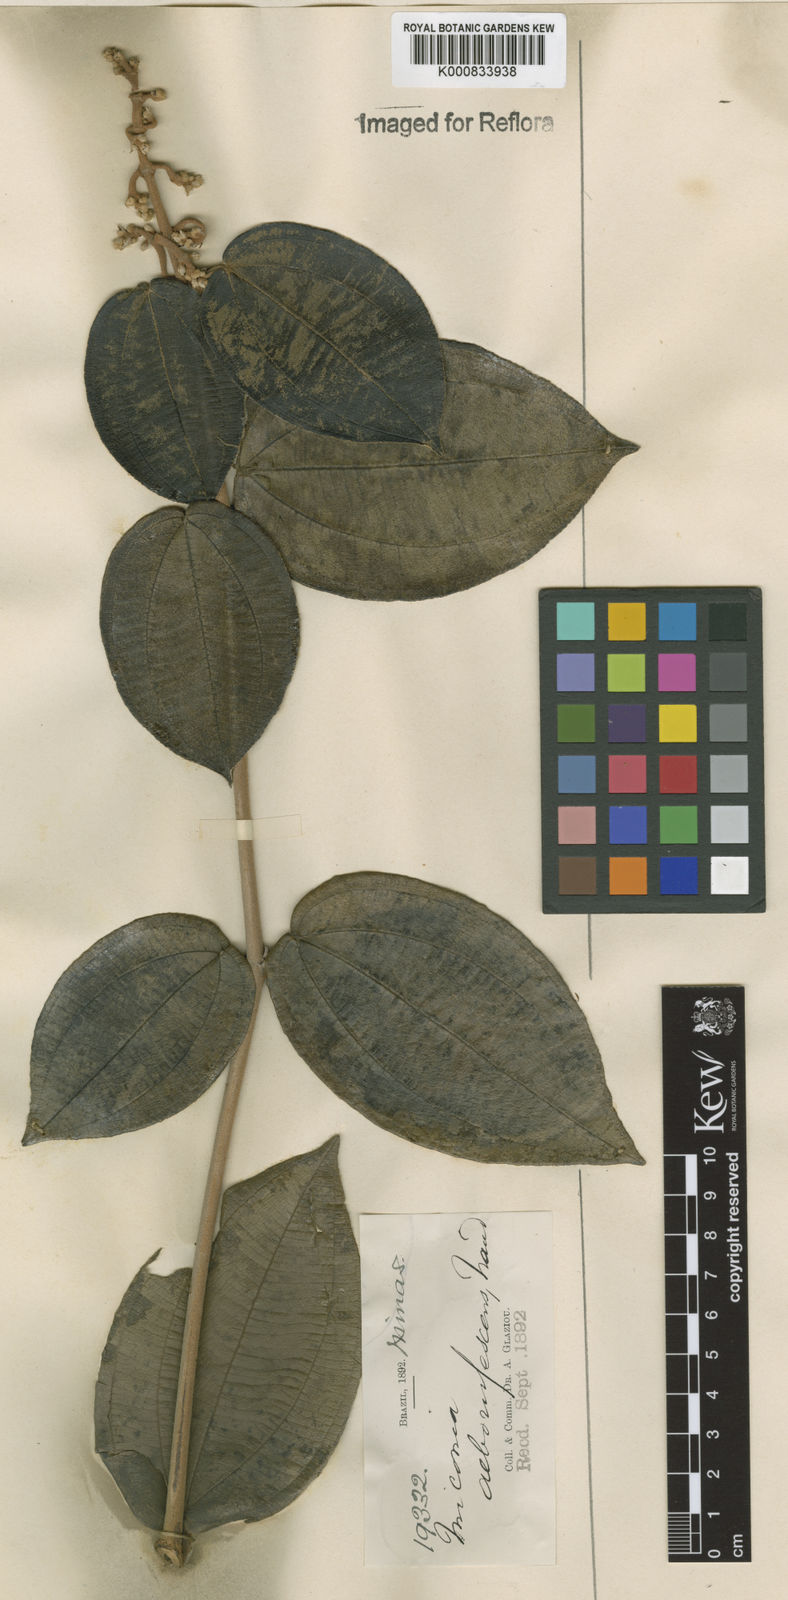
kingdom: Plantae
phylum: Tracheophyta
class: Magnoliopsida
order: Myrtales
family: Melastomataceae
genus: Miconia
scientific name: Miconia alborufescens
